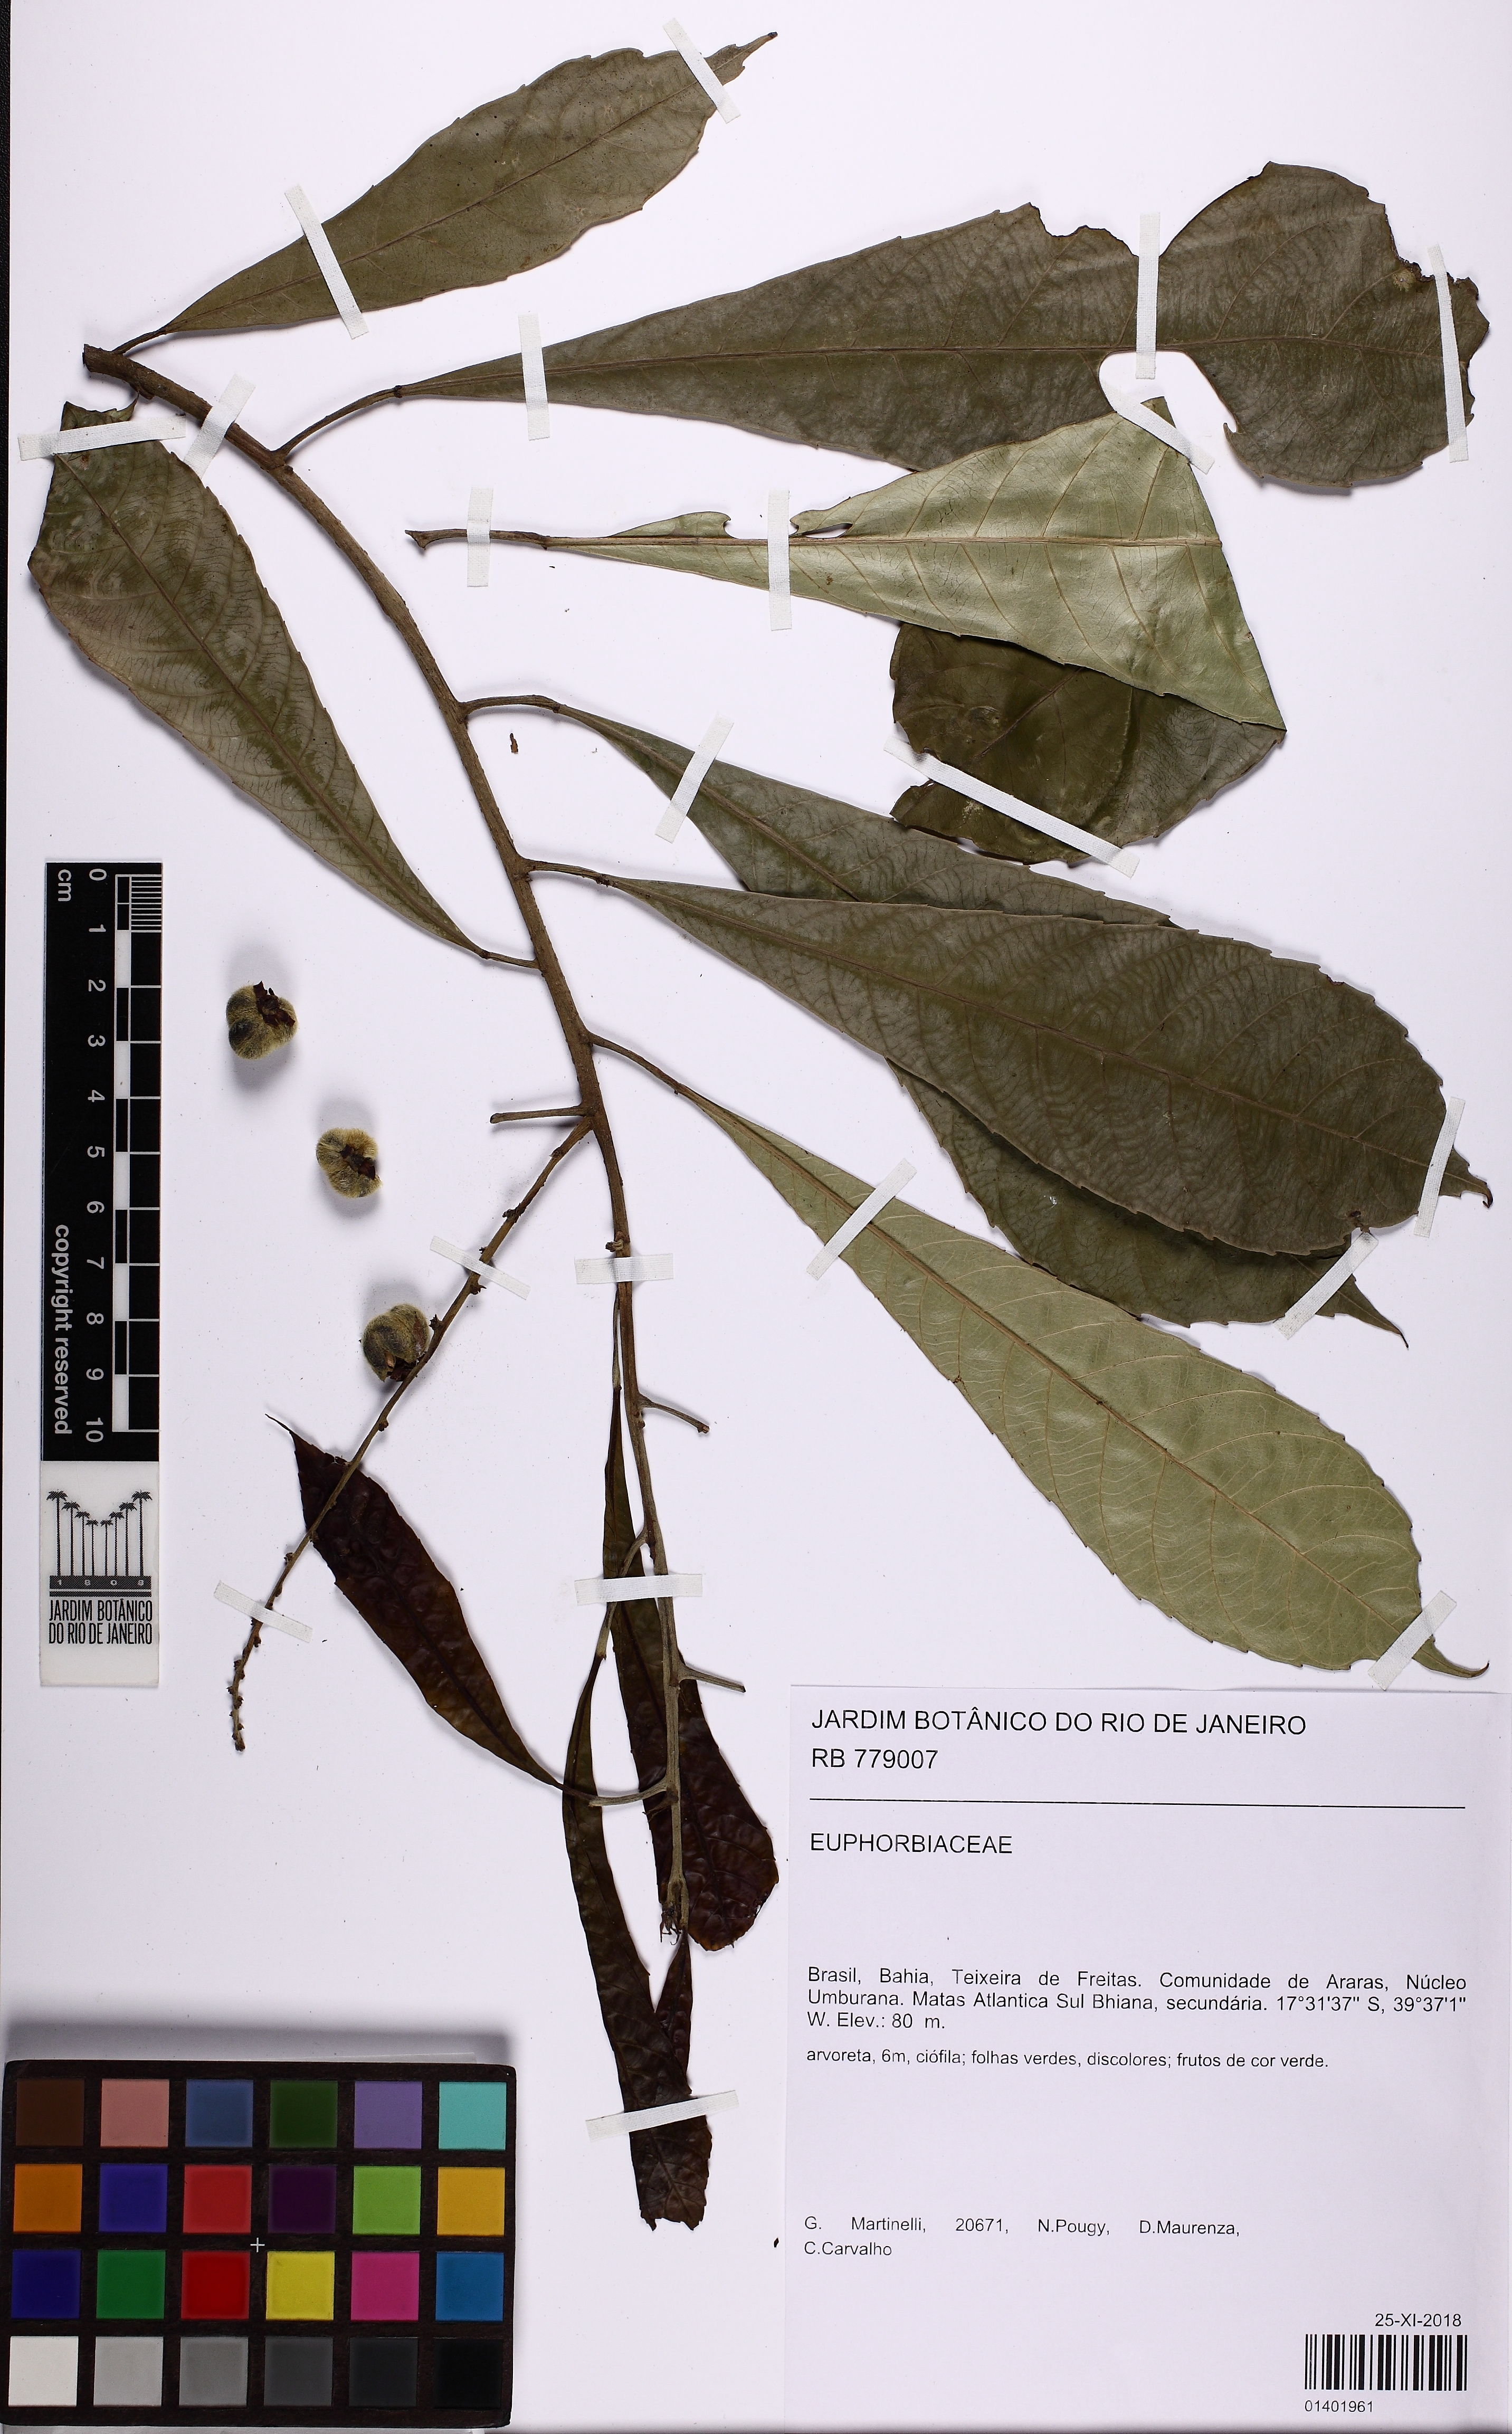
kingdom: Plantae
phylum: Tracheophyta
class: Magnoliopsida
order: Malpighiales
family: Euphorbiaceae
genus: Pausandra
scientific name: Pausandra
